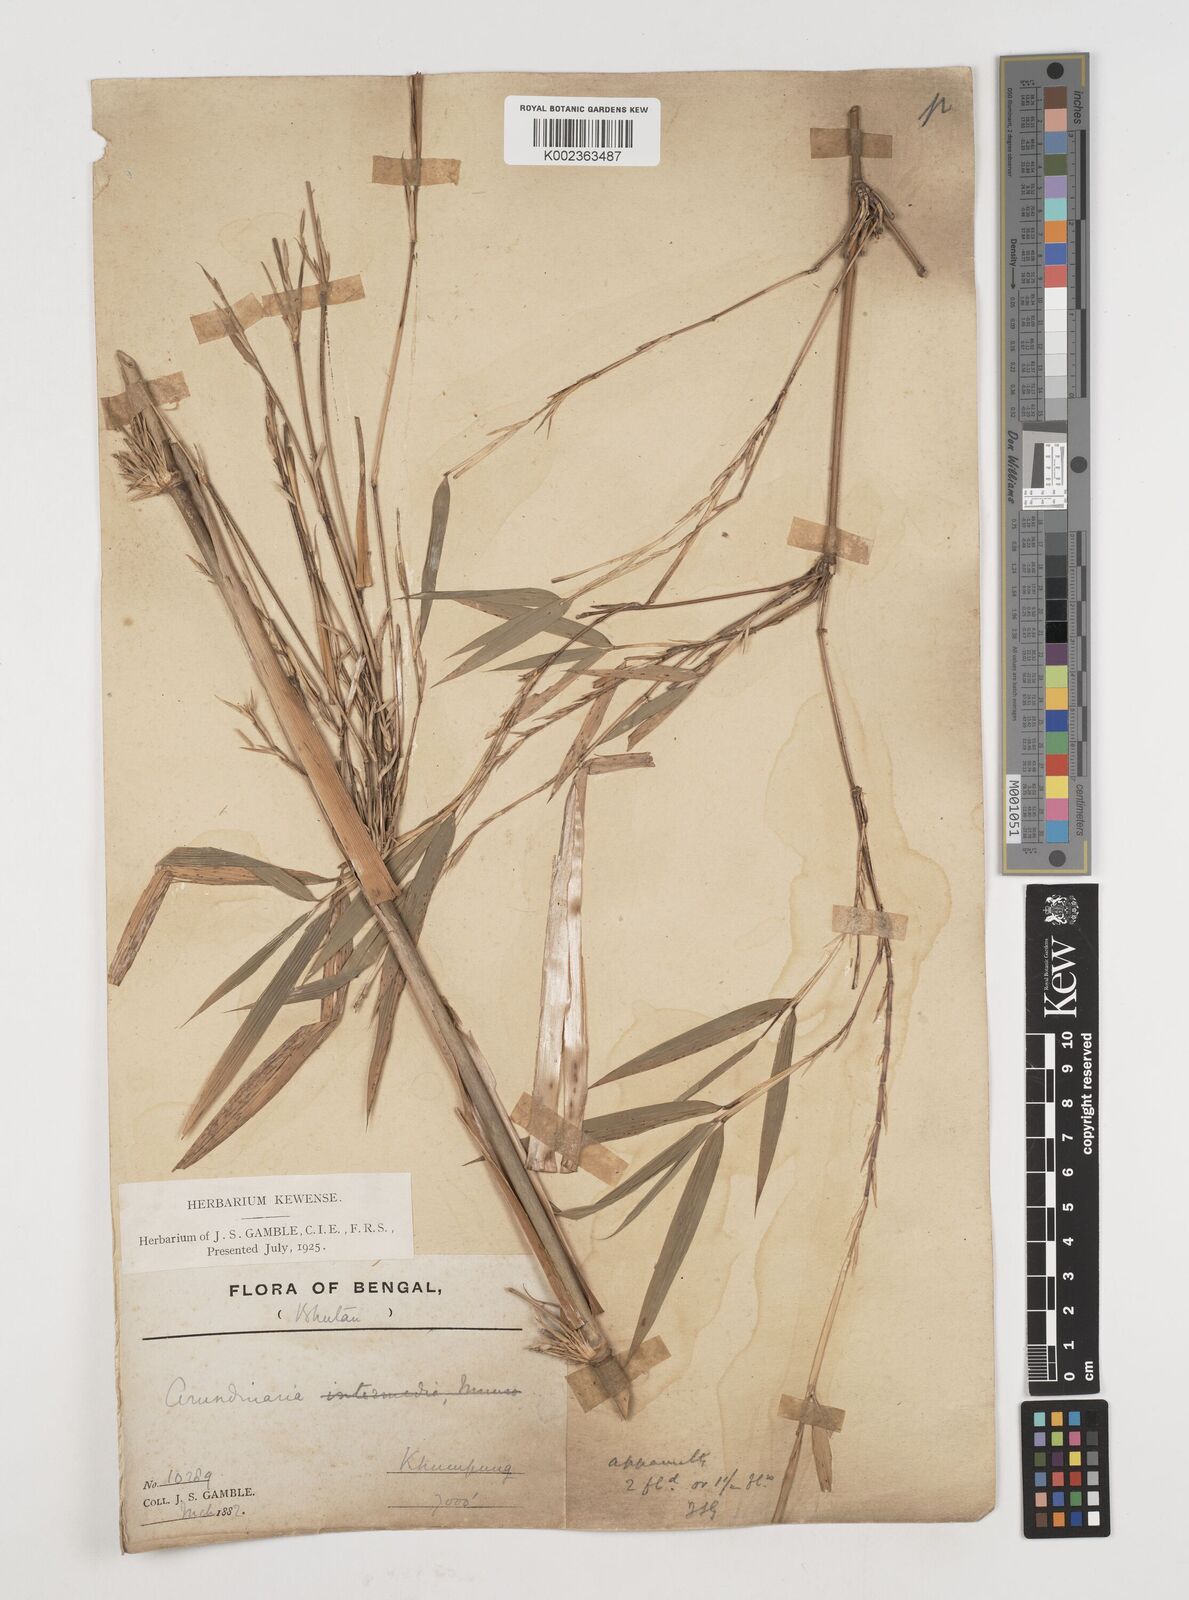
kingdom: Plantae
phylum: Tracheophyta
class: Liliopsida
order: Poales
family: Poaceae
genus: Himalayacalamus
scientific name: Himalayacalamus
